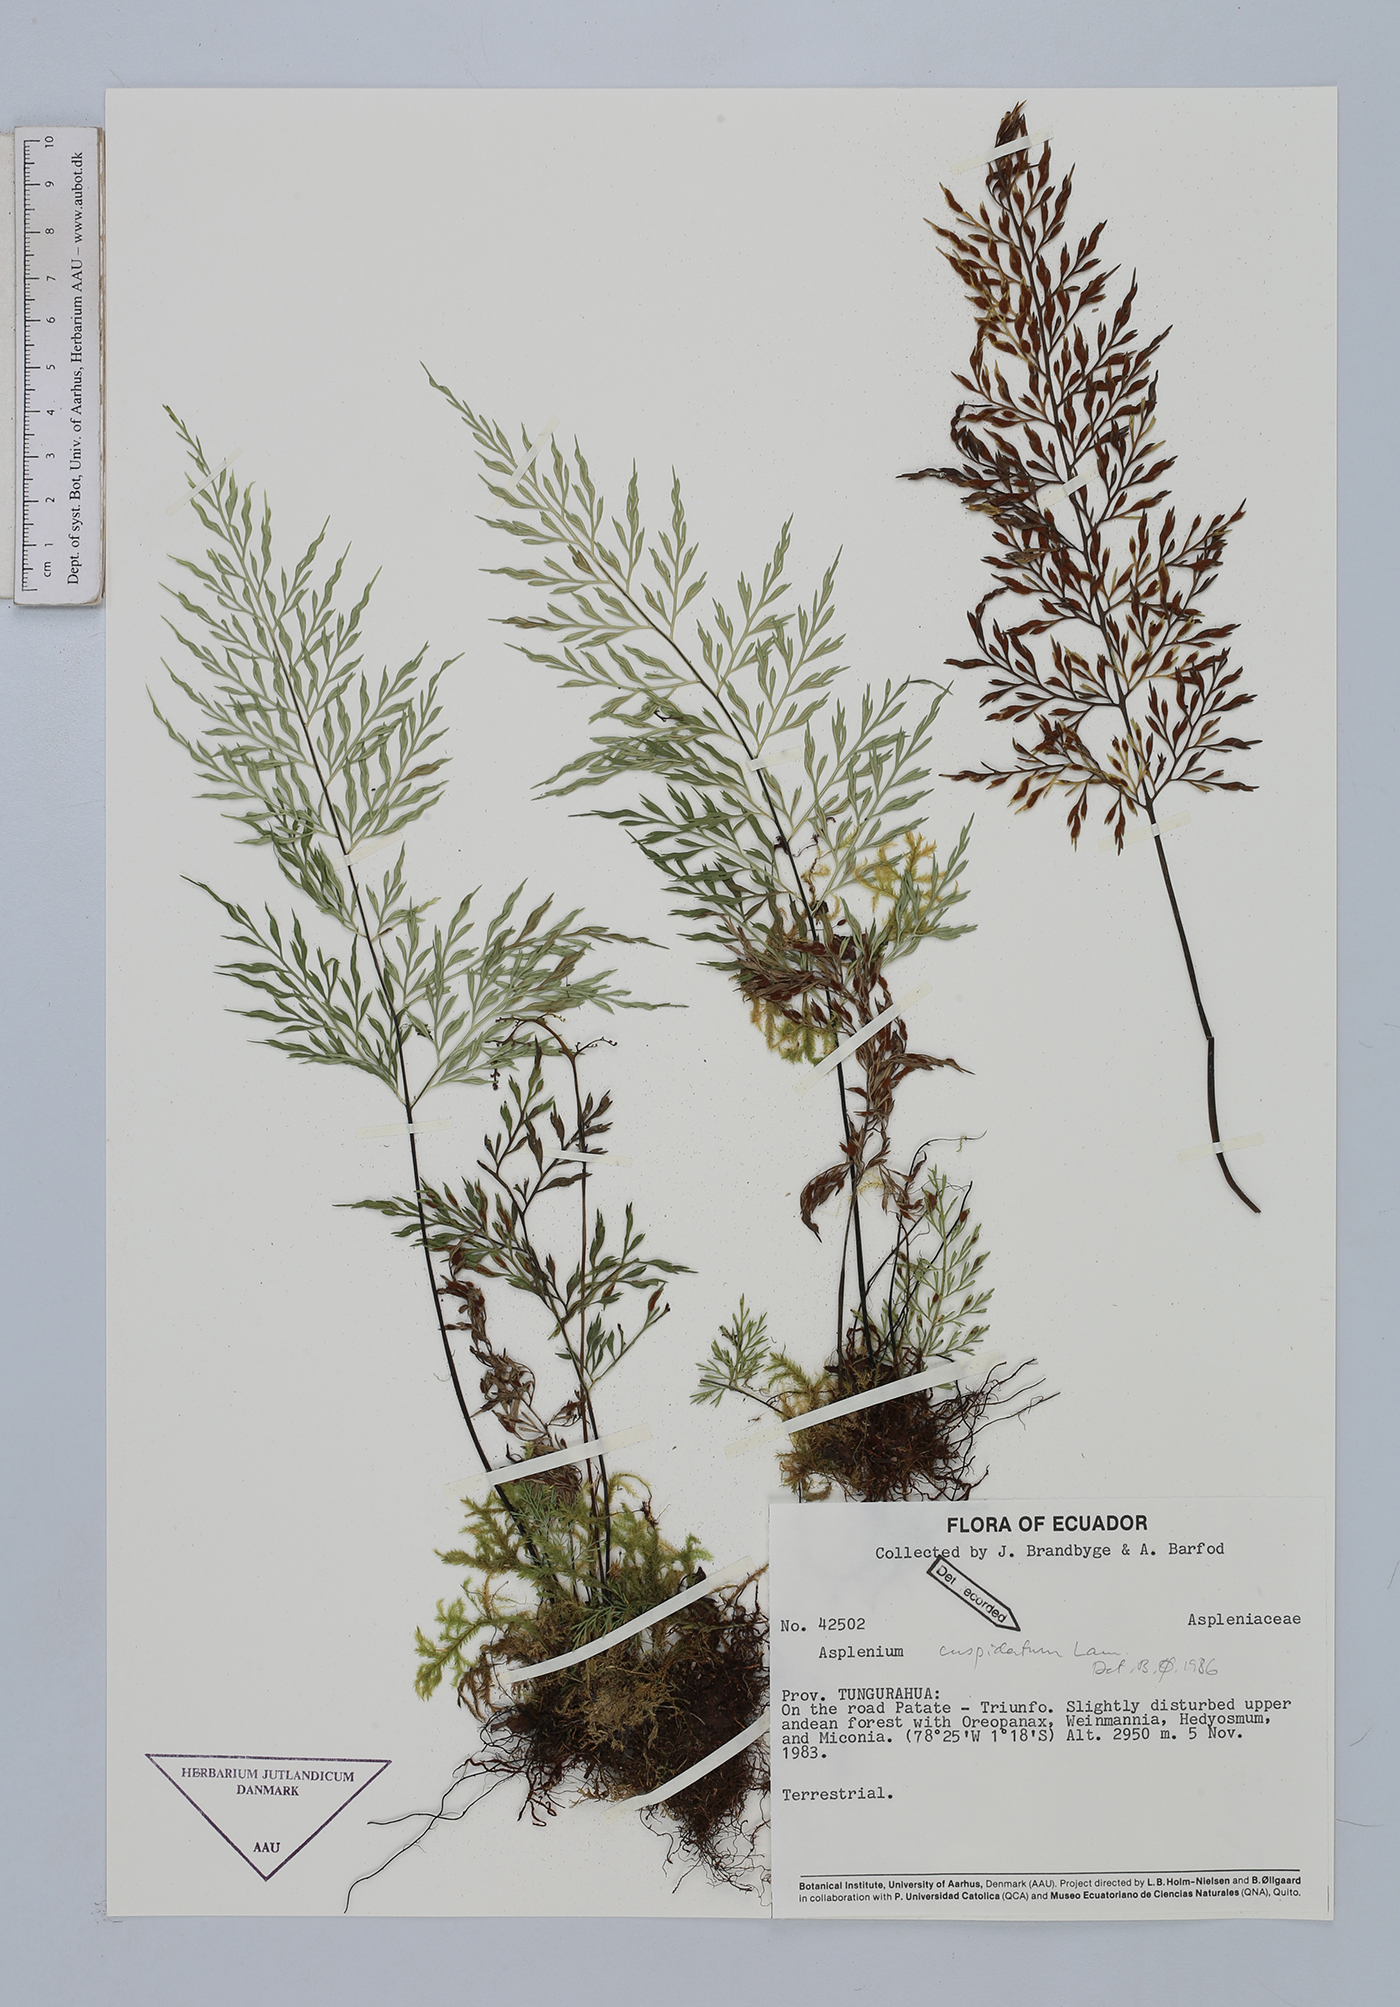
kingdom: Plantae
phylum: Tracheophyta
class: Polypodiopsida
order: Polypodiales
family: Aspleniaceae
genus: Asplenium
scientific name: Asplenium cuspidatum
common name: Eared spleenwort
